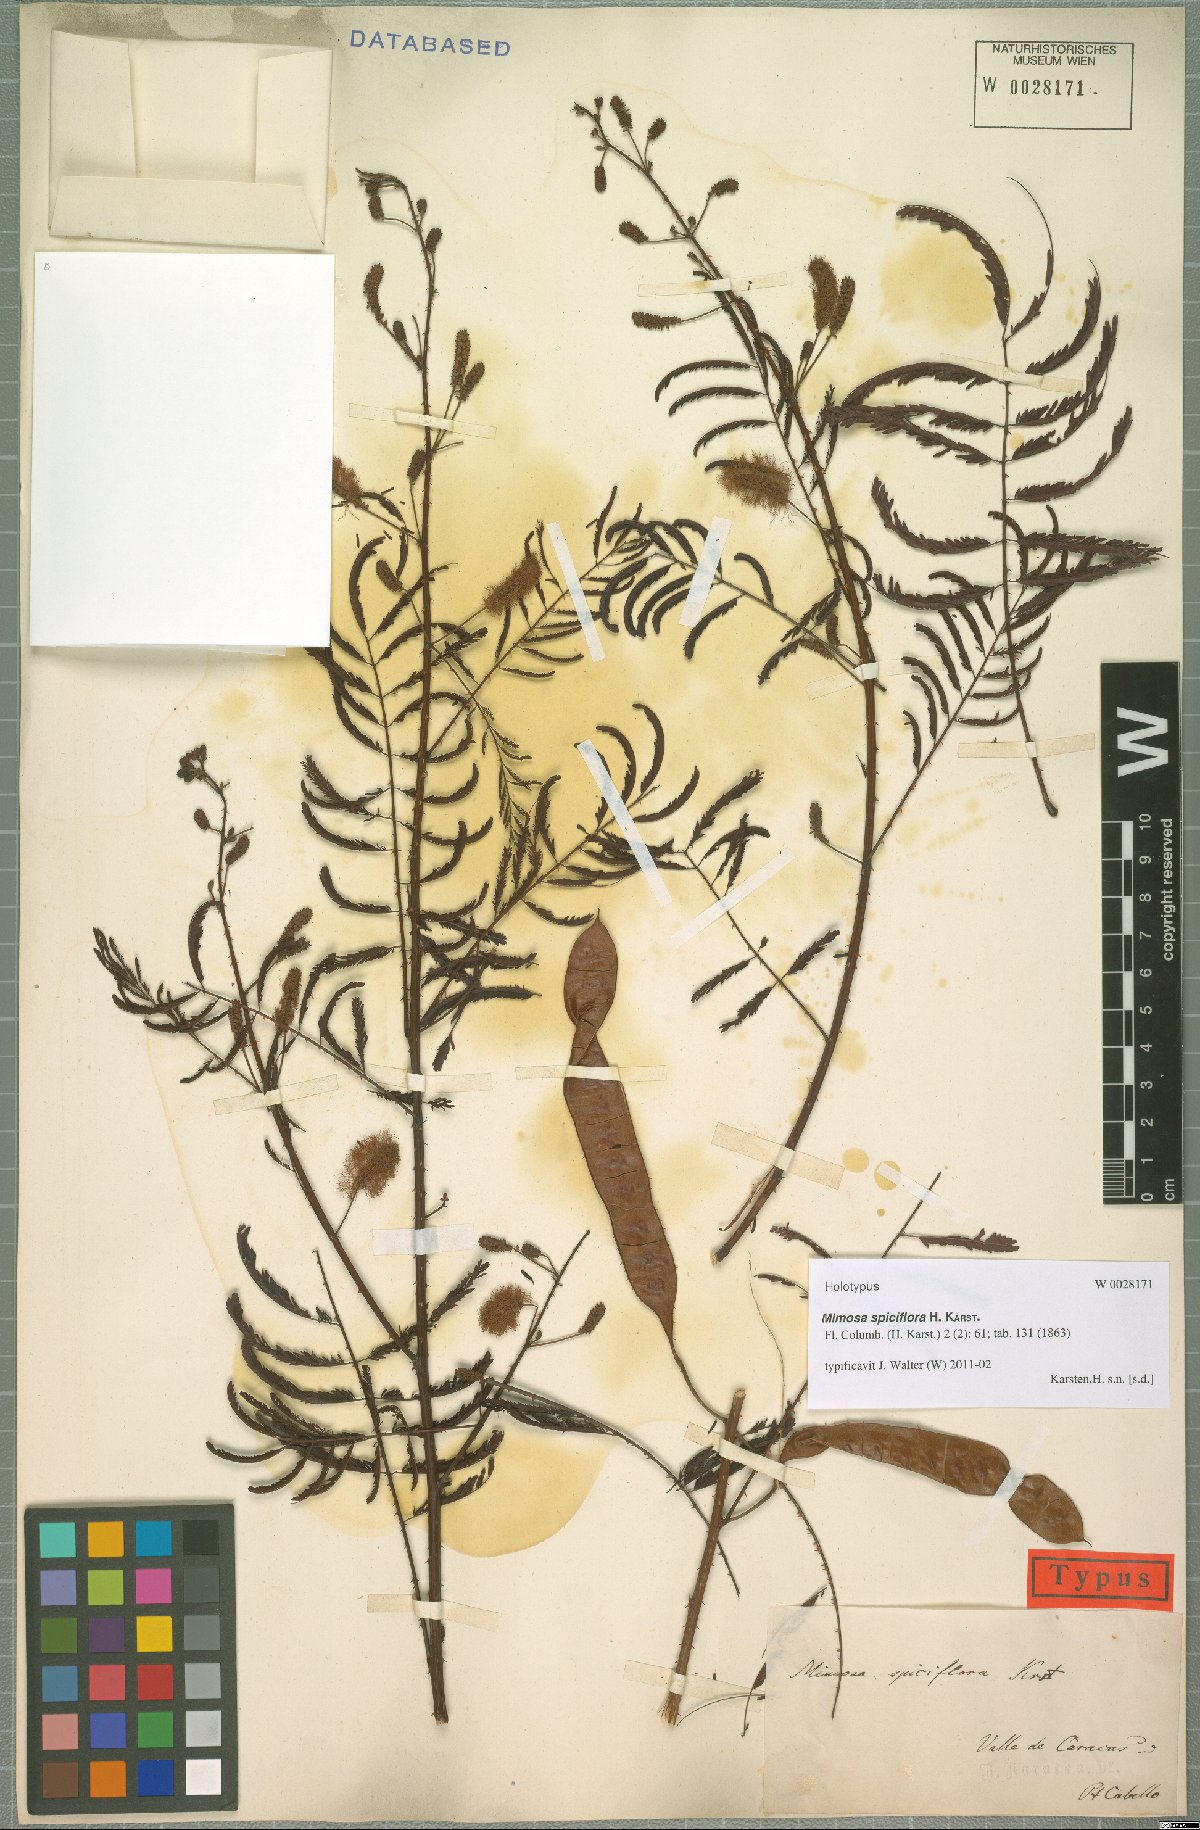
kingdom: Plantae
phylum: Tracheophyta
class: Magnoliopsida
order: Fabales
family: Fabaceae
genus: Mimosa
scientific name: Mimosa invisa
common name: Creeping sensitive-plant
